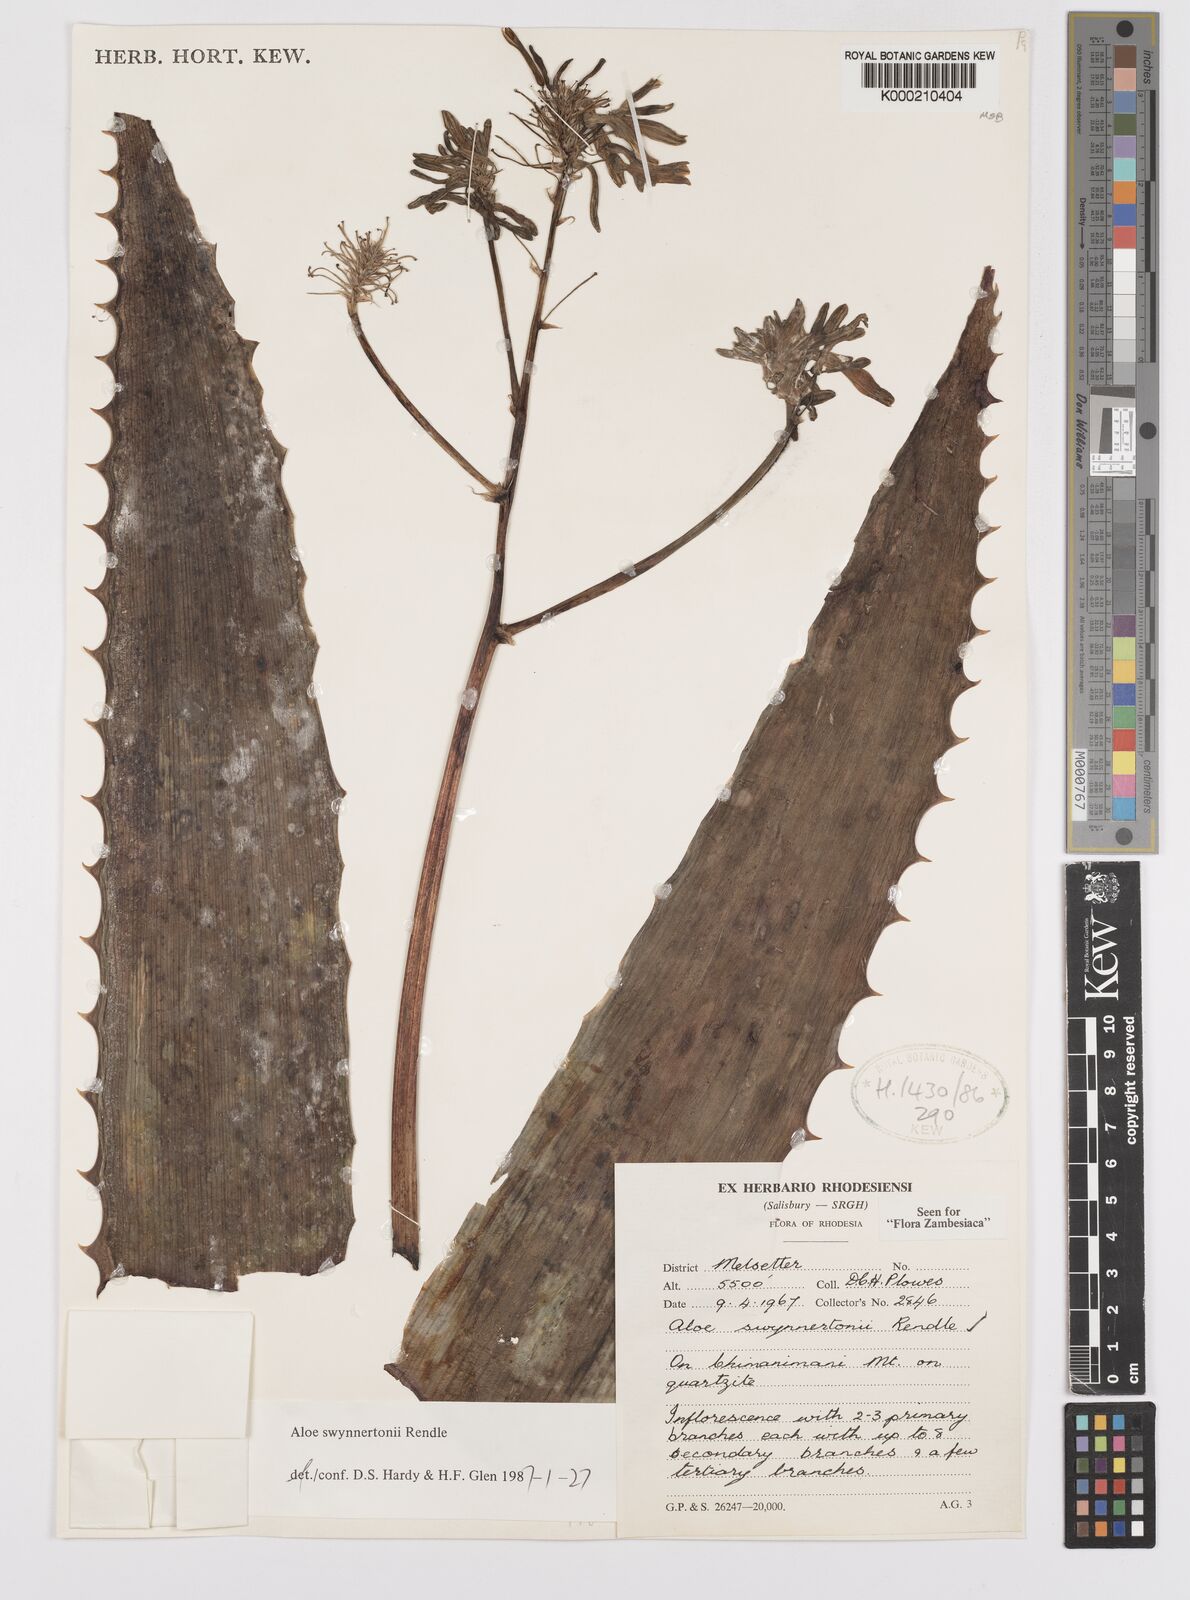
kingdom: Plantae
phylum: Tracheophyta
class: Liliopsida
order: Asparagales
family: Asphodelaceae
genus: Aloe
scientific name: Aloe swynnertonii
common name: Swynnerton's aloe
